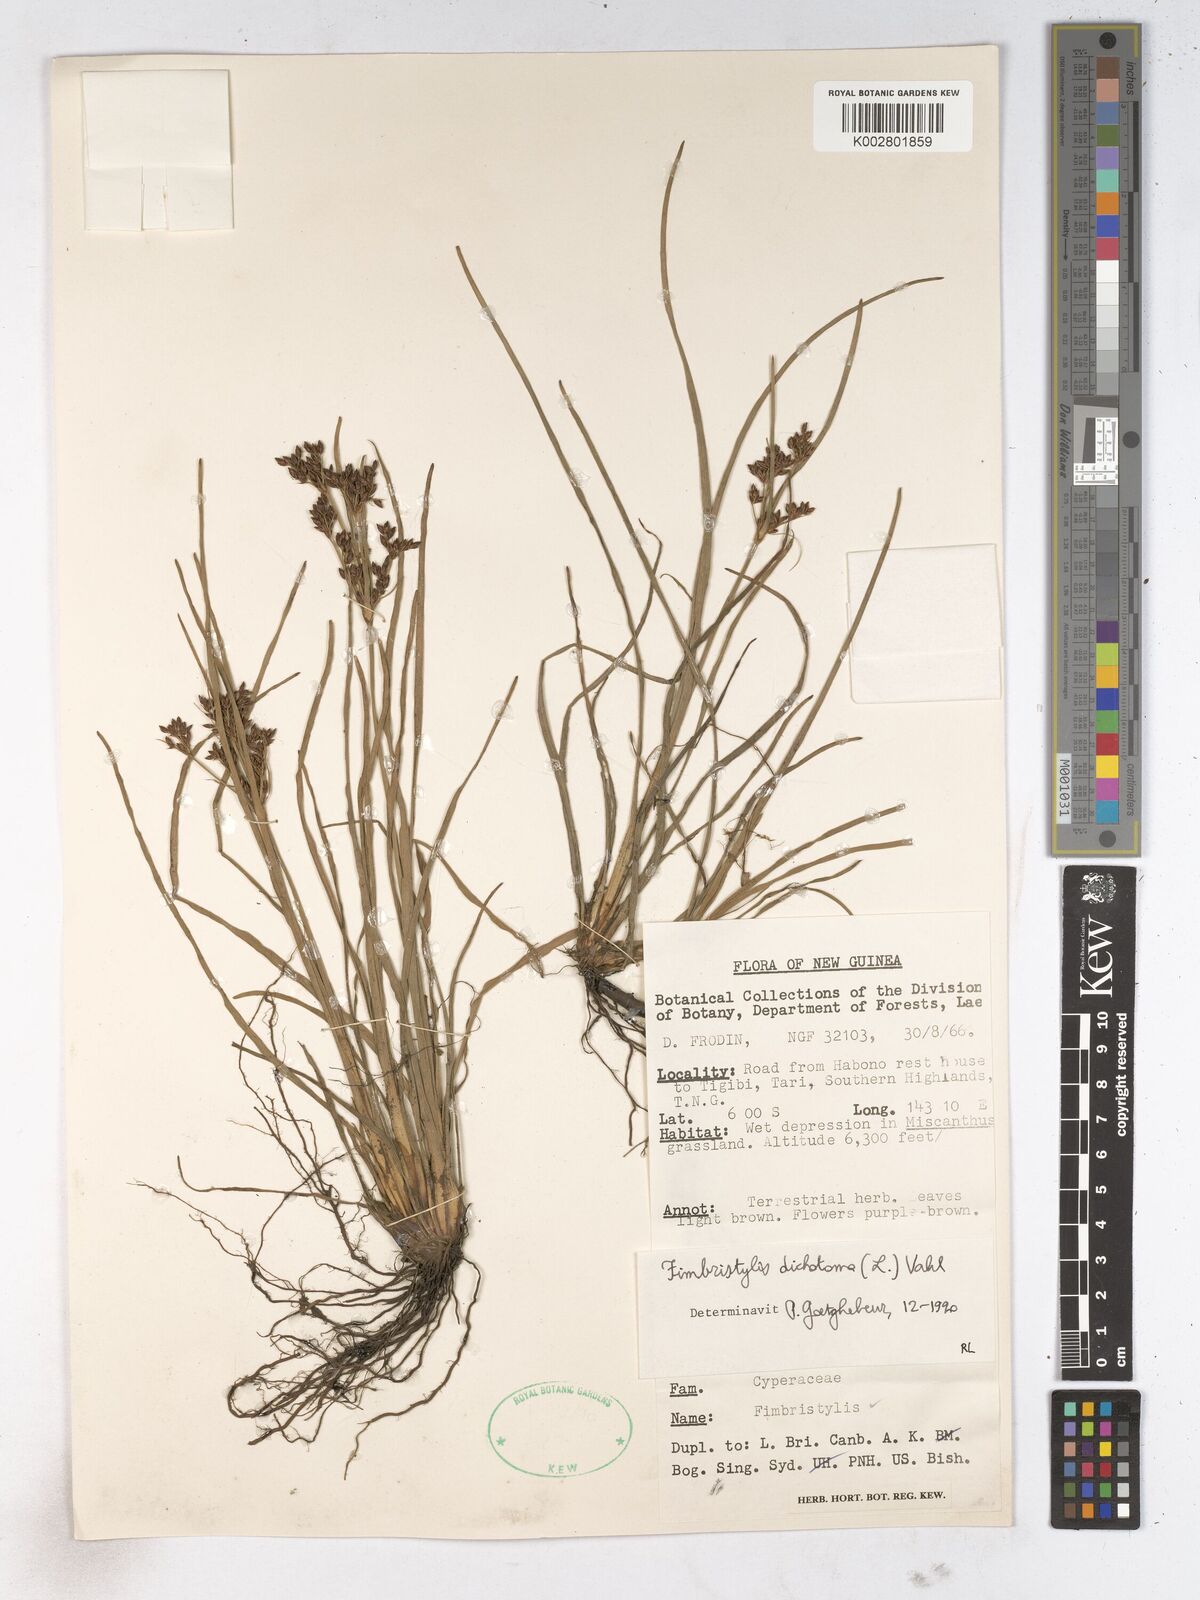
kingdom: Plantae
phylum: Tracheophyta
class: Liliopsida
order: Poales
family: Cyperaceae
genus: Fimbristylis
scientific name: Fimbristylis dichotoma
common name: Forked fimbry
